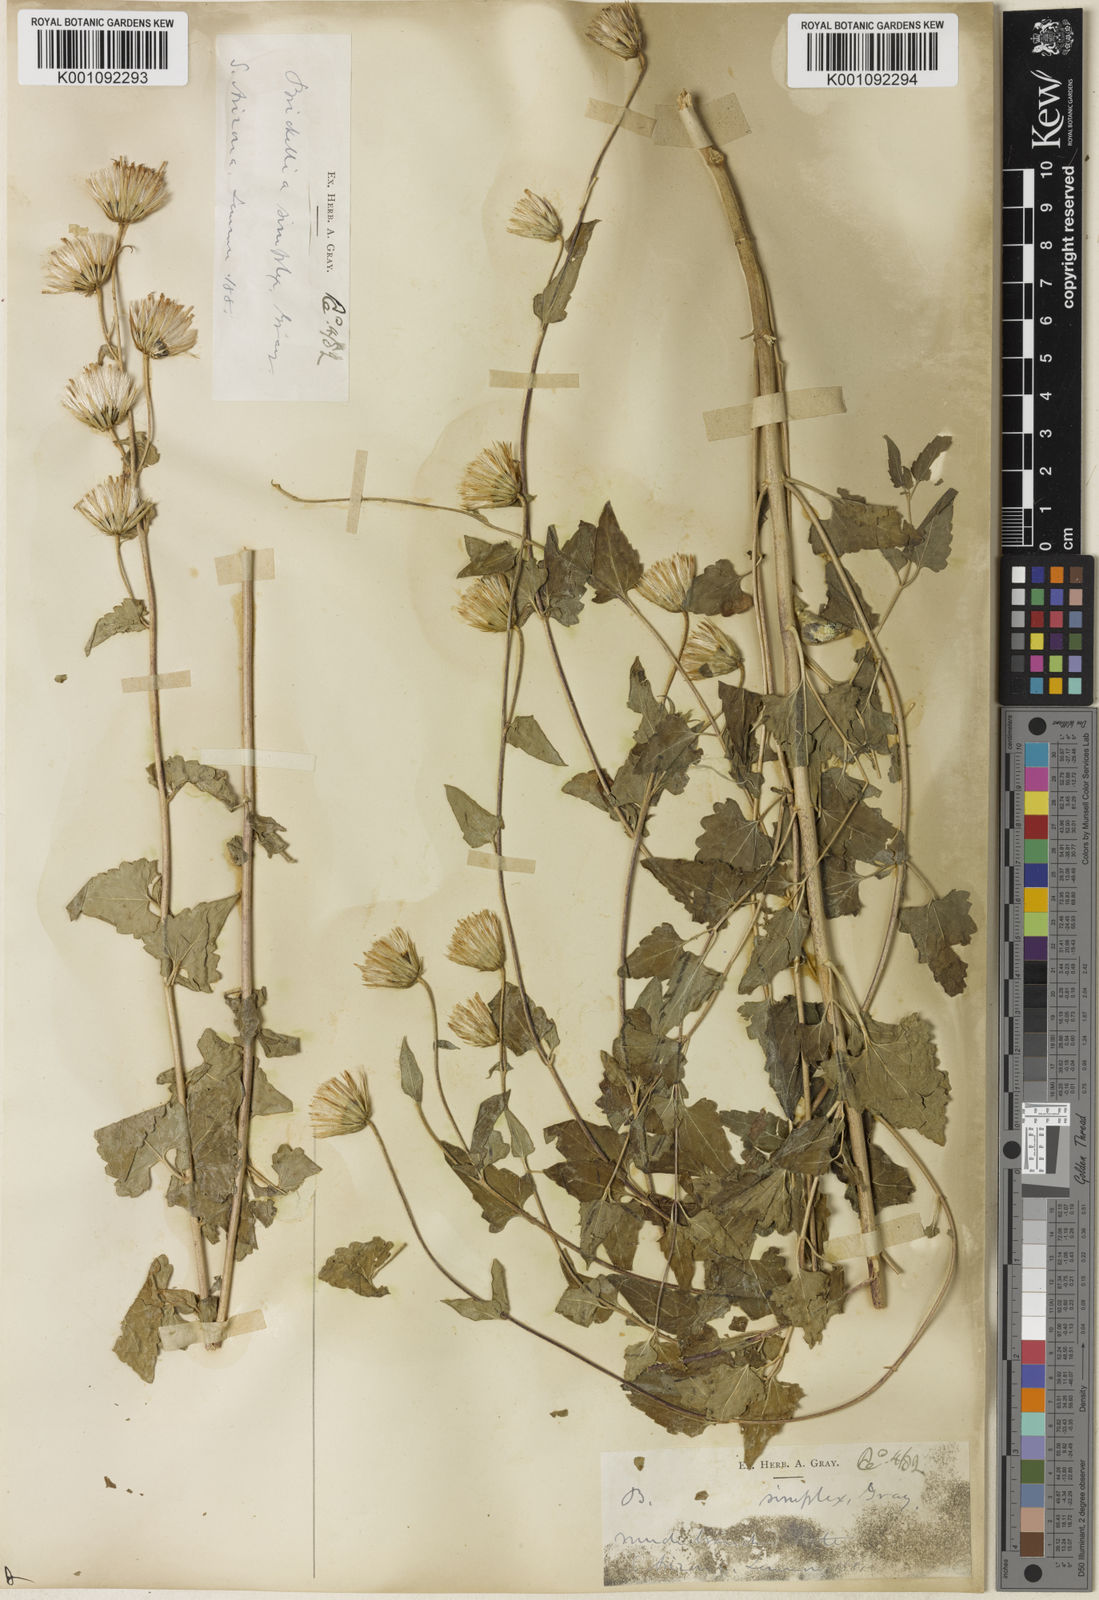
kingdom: Plantae
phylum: Tracheophyta
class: Magnoliopsida
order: Asterales
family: Asteraceae
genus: Brickellia
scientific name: Brickellia simplex
